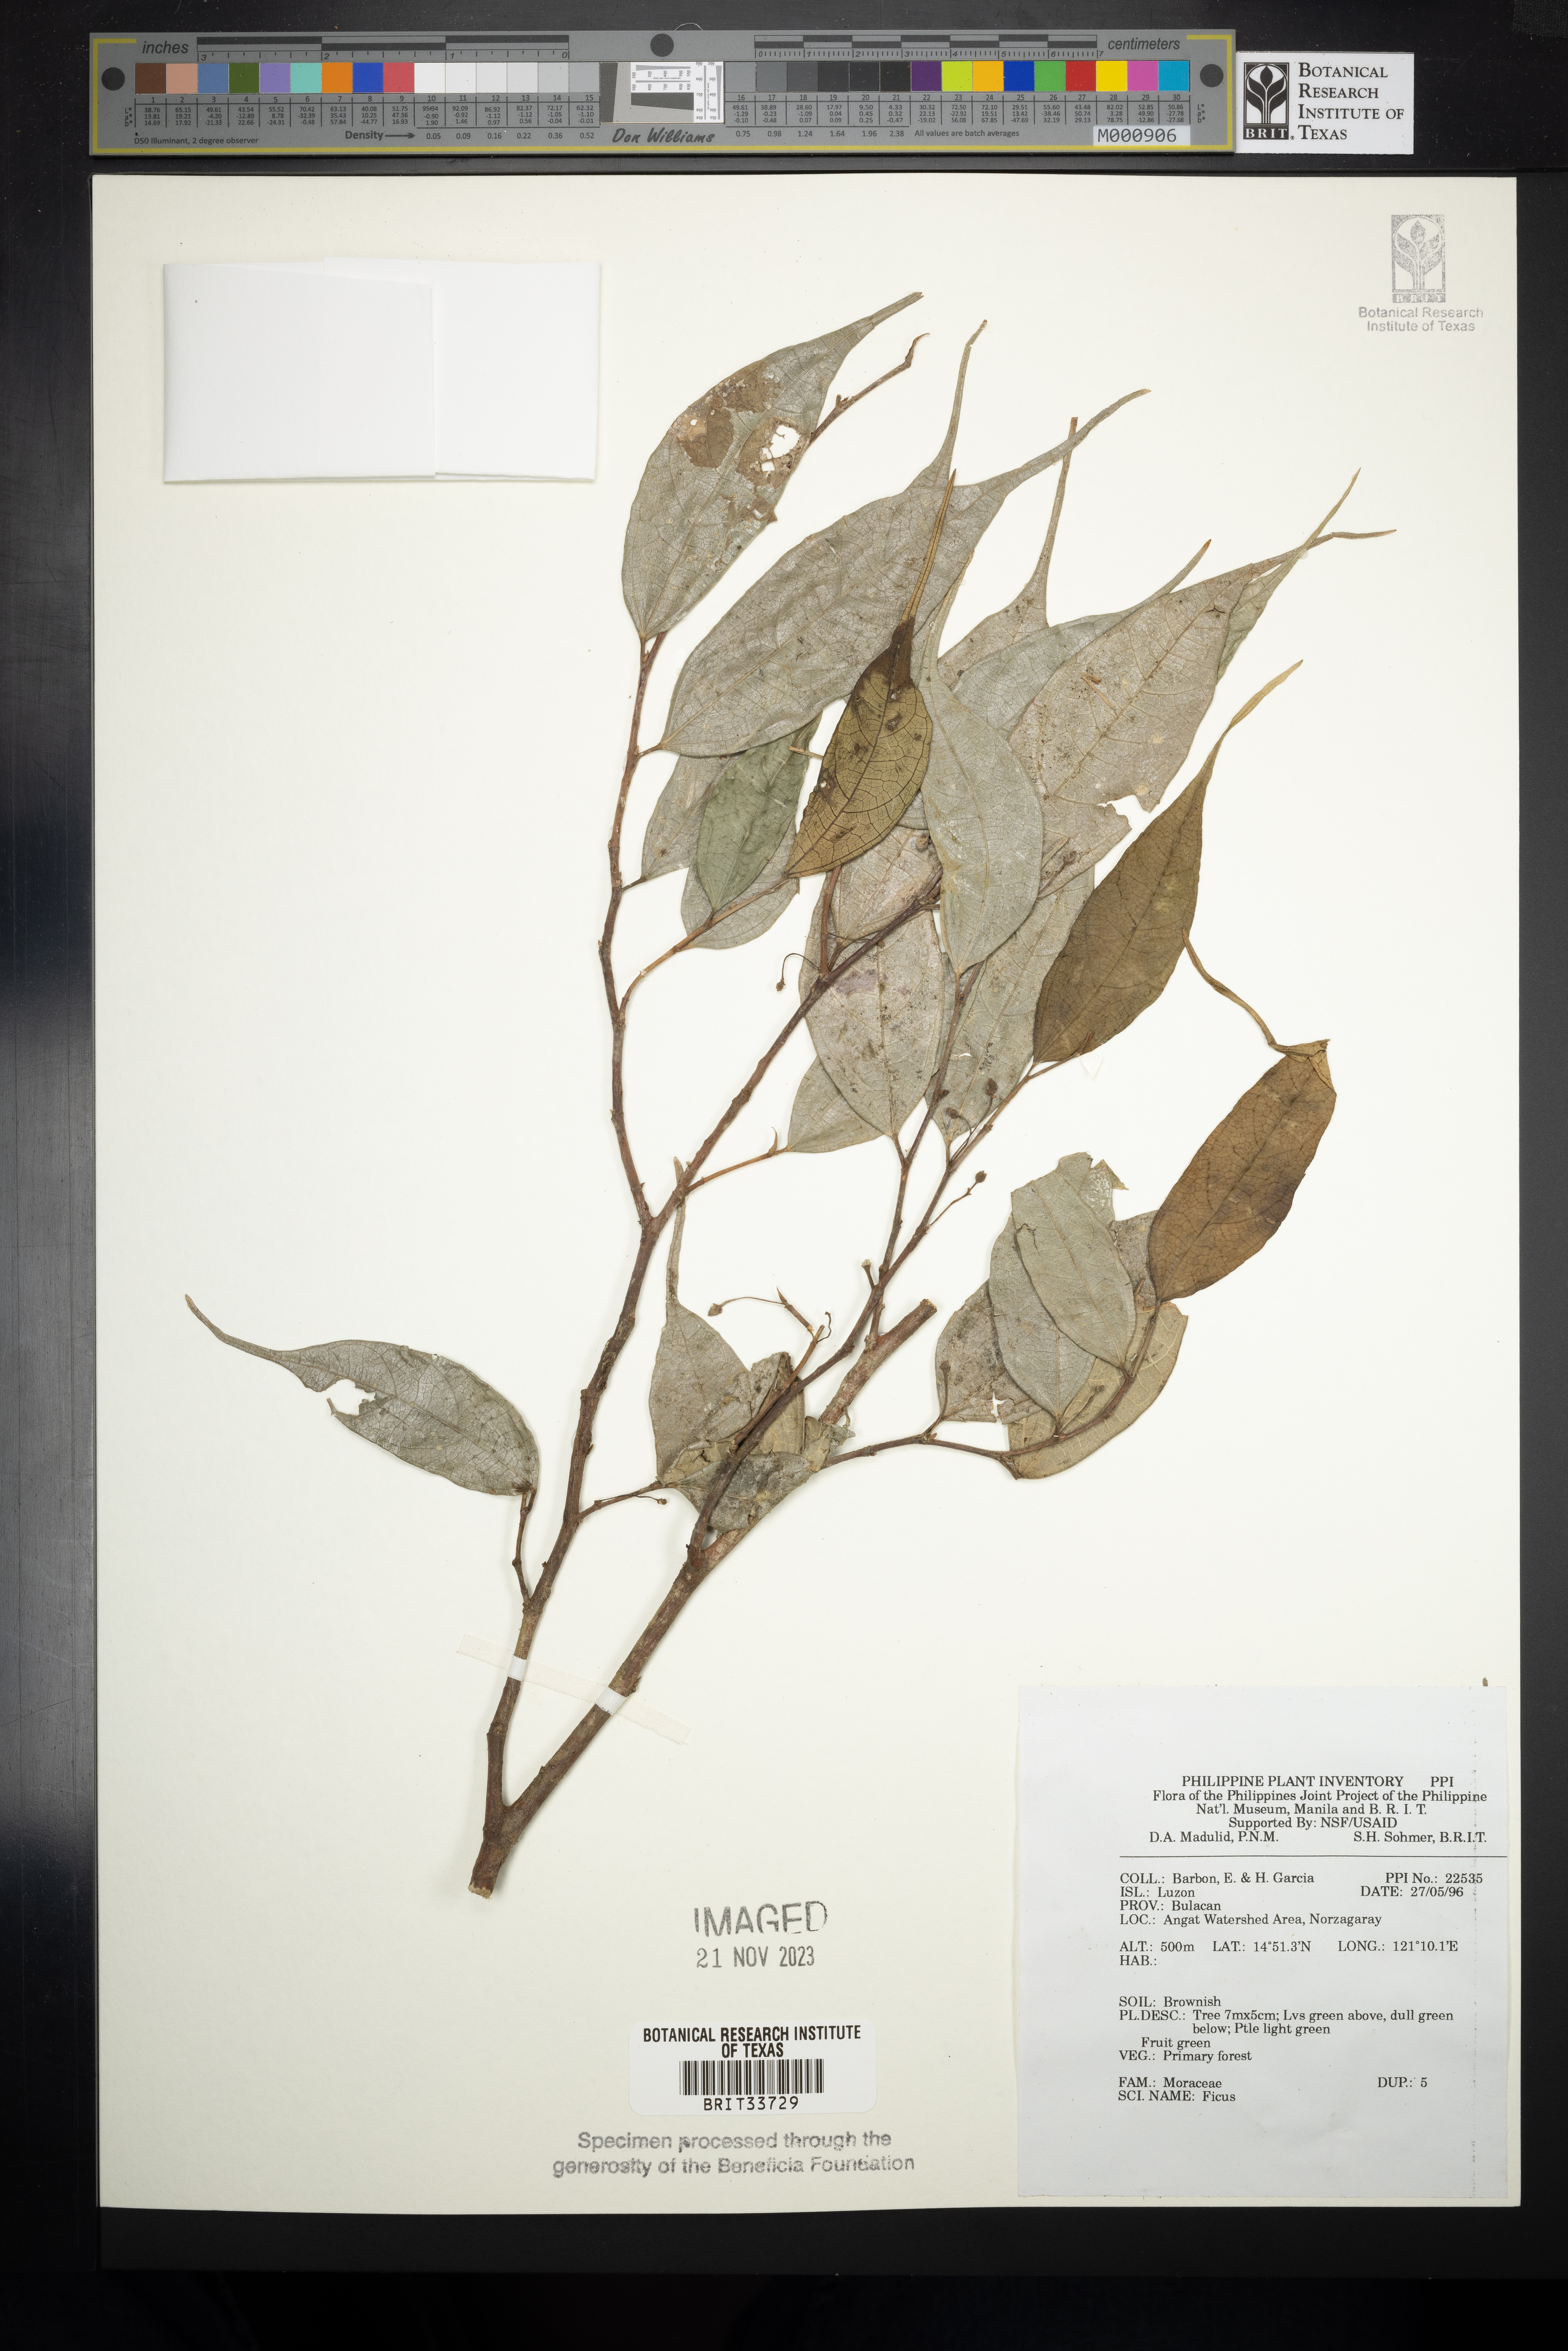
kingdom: Plantae
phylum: Tracheophyta
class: Magnoliopsida
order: Rosales
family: Moraceae
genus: Ficus
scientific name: Ficus
